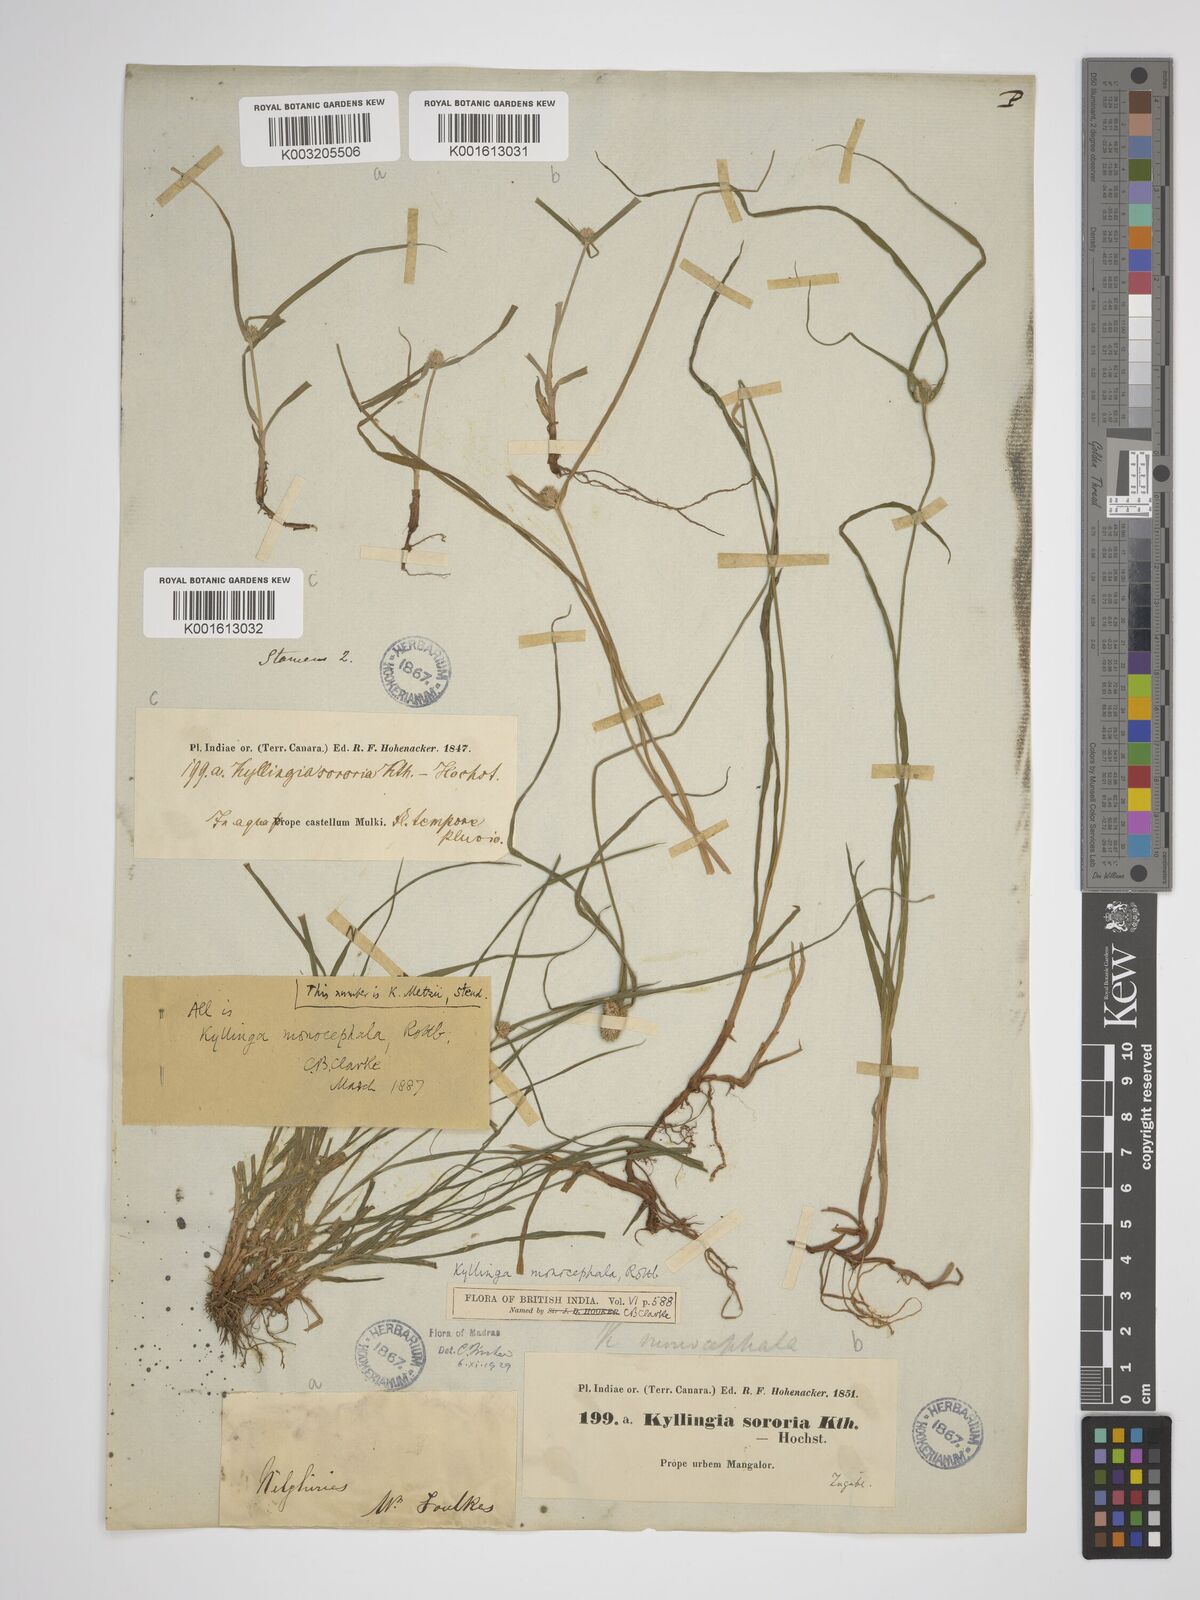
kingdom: Plantae
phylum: Tracheophyta
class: Liliopsida
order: Poales
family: Cyperaceae
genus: Rhynchospora
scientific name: Rhynchospora colorata
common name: Star sedge
